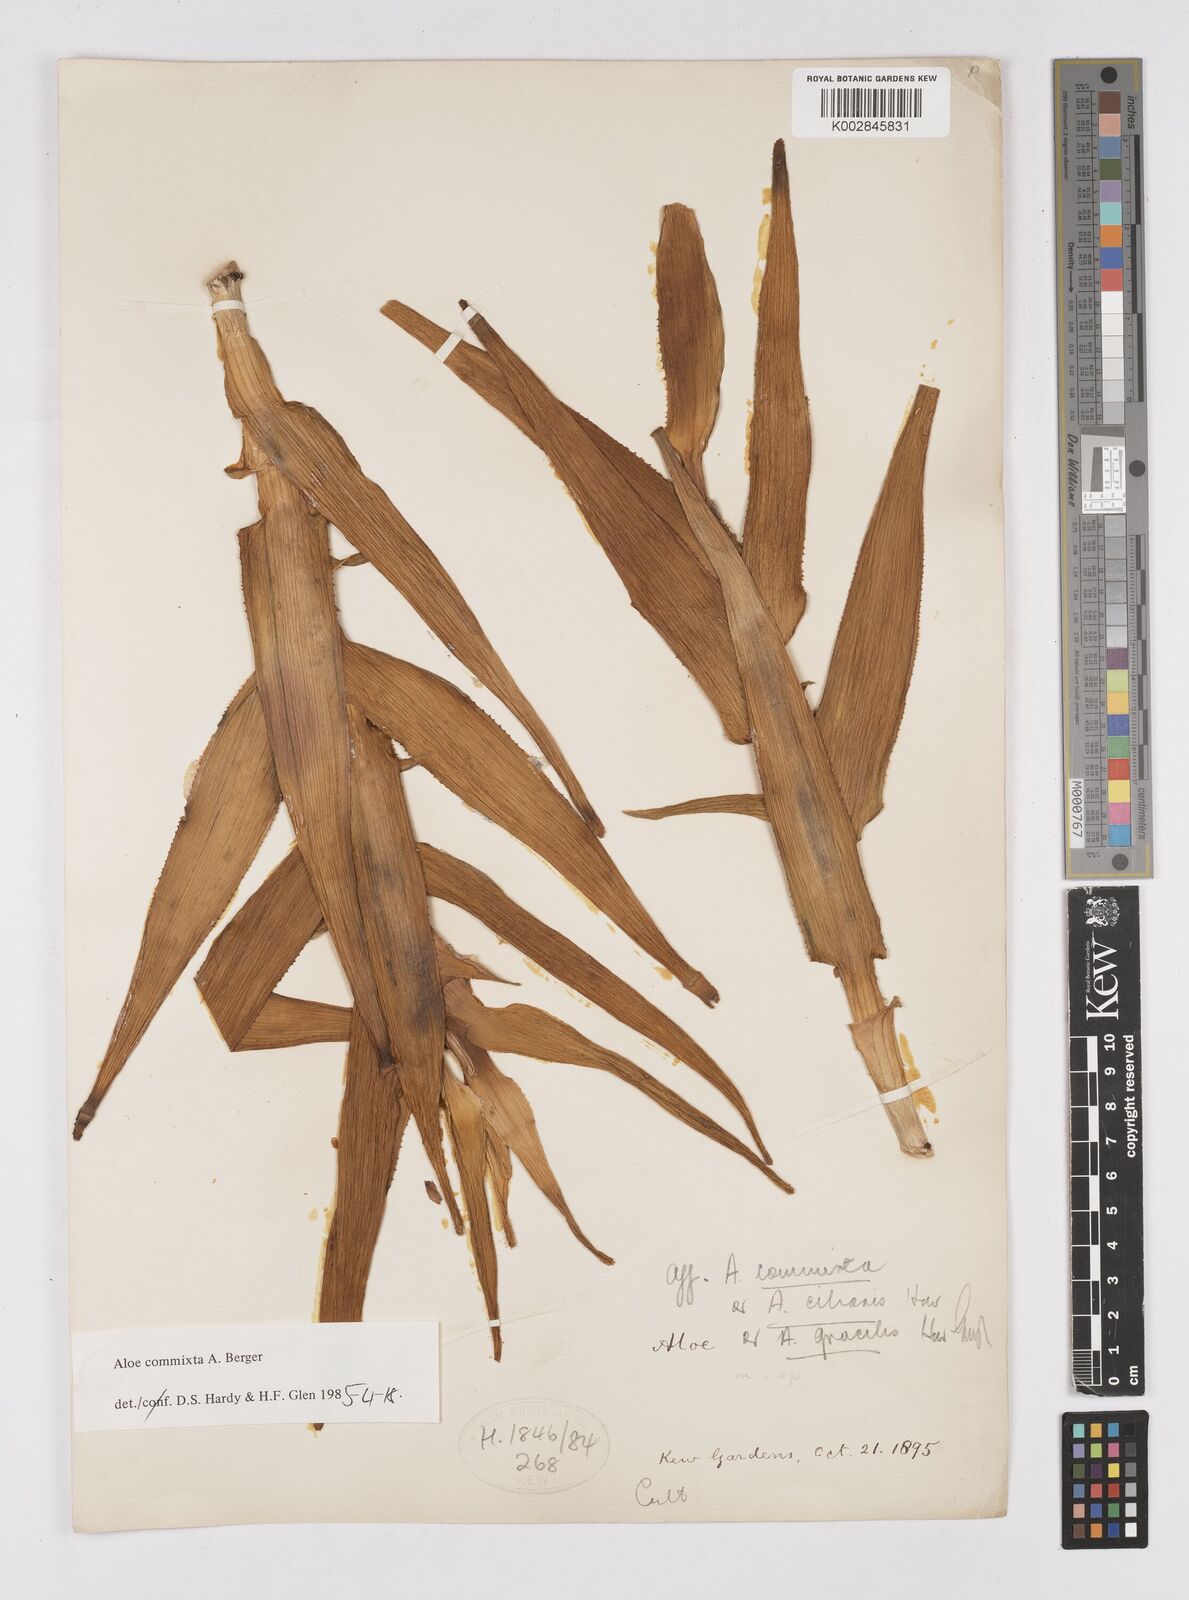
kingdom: Plantae
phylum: Tracheophyta
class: Liliopsida
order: Asparagales
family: Asphodelaceae
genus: Aloiampelos
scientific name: Aloiampelos commixta
